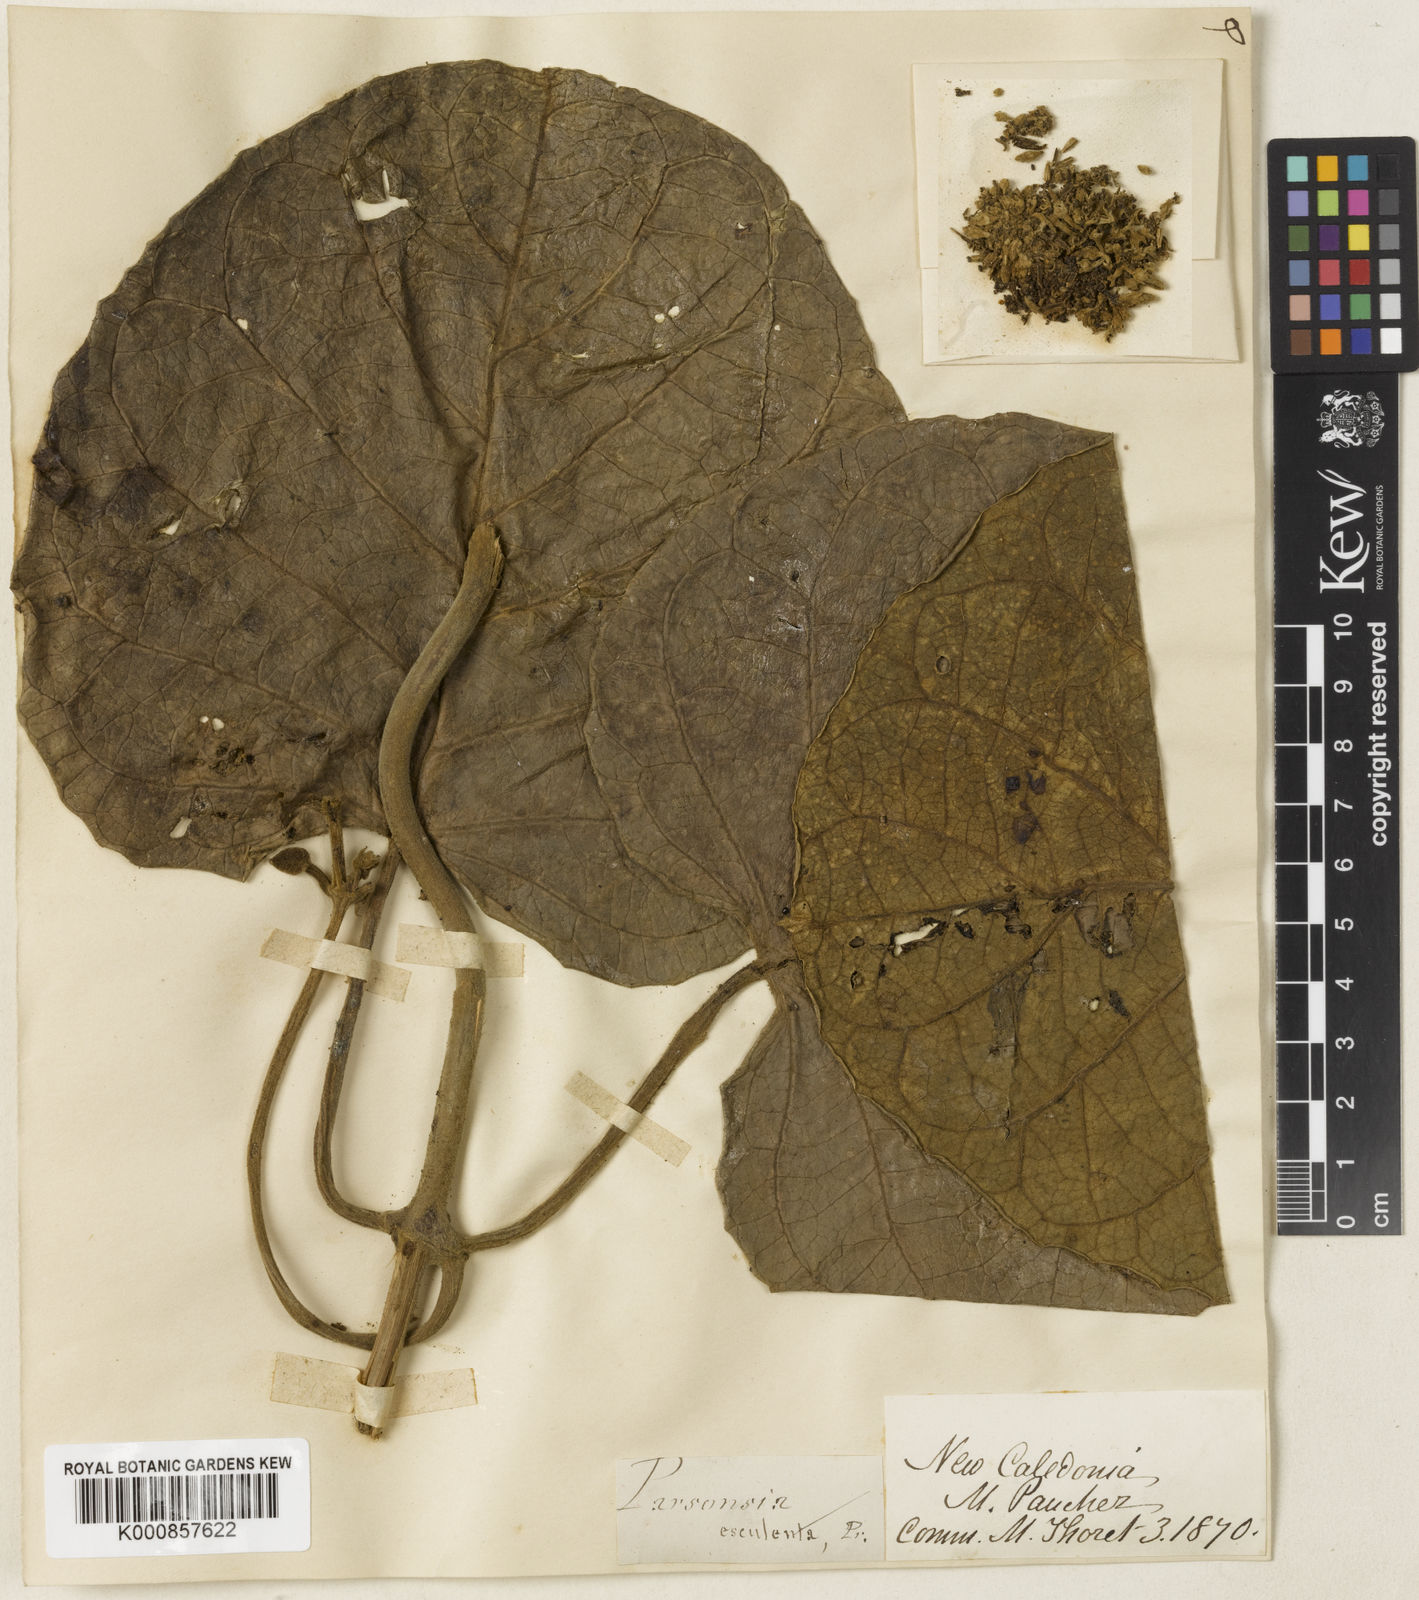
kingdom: Plantae
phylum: Tracheophyta
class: Magnoliopsida
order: Gentianales
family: Apocynaceae
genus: Parsonsia
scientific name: Parsonsia edulis
